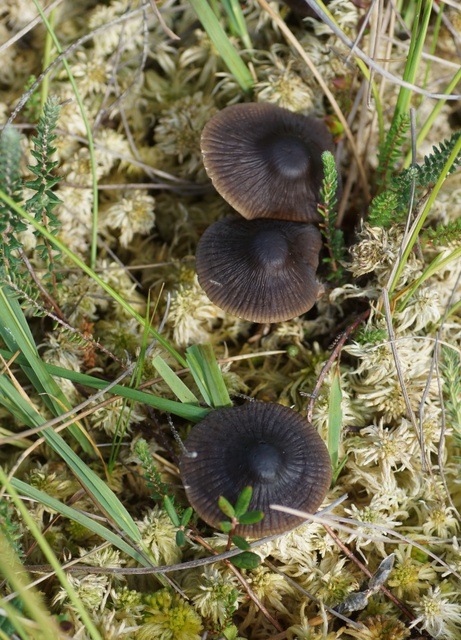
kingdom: Fungi
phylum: Basidiomycota
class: Agaricomycetes
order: Agaricales
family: Mycenaceae
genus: Mycena
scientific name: Mycena megaspora
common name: brusk-huesvamp
